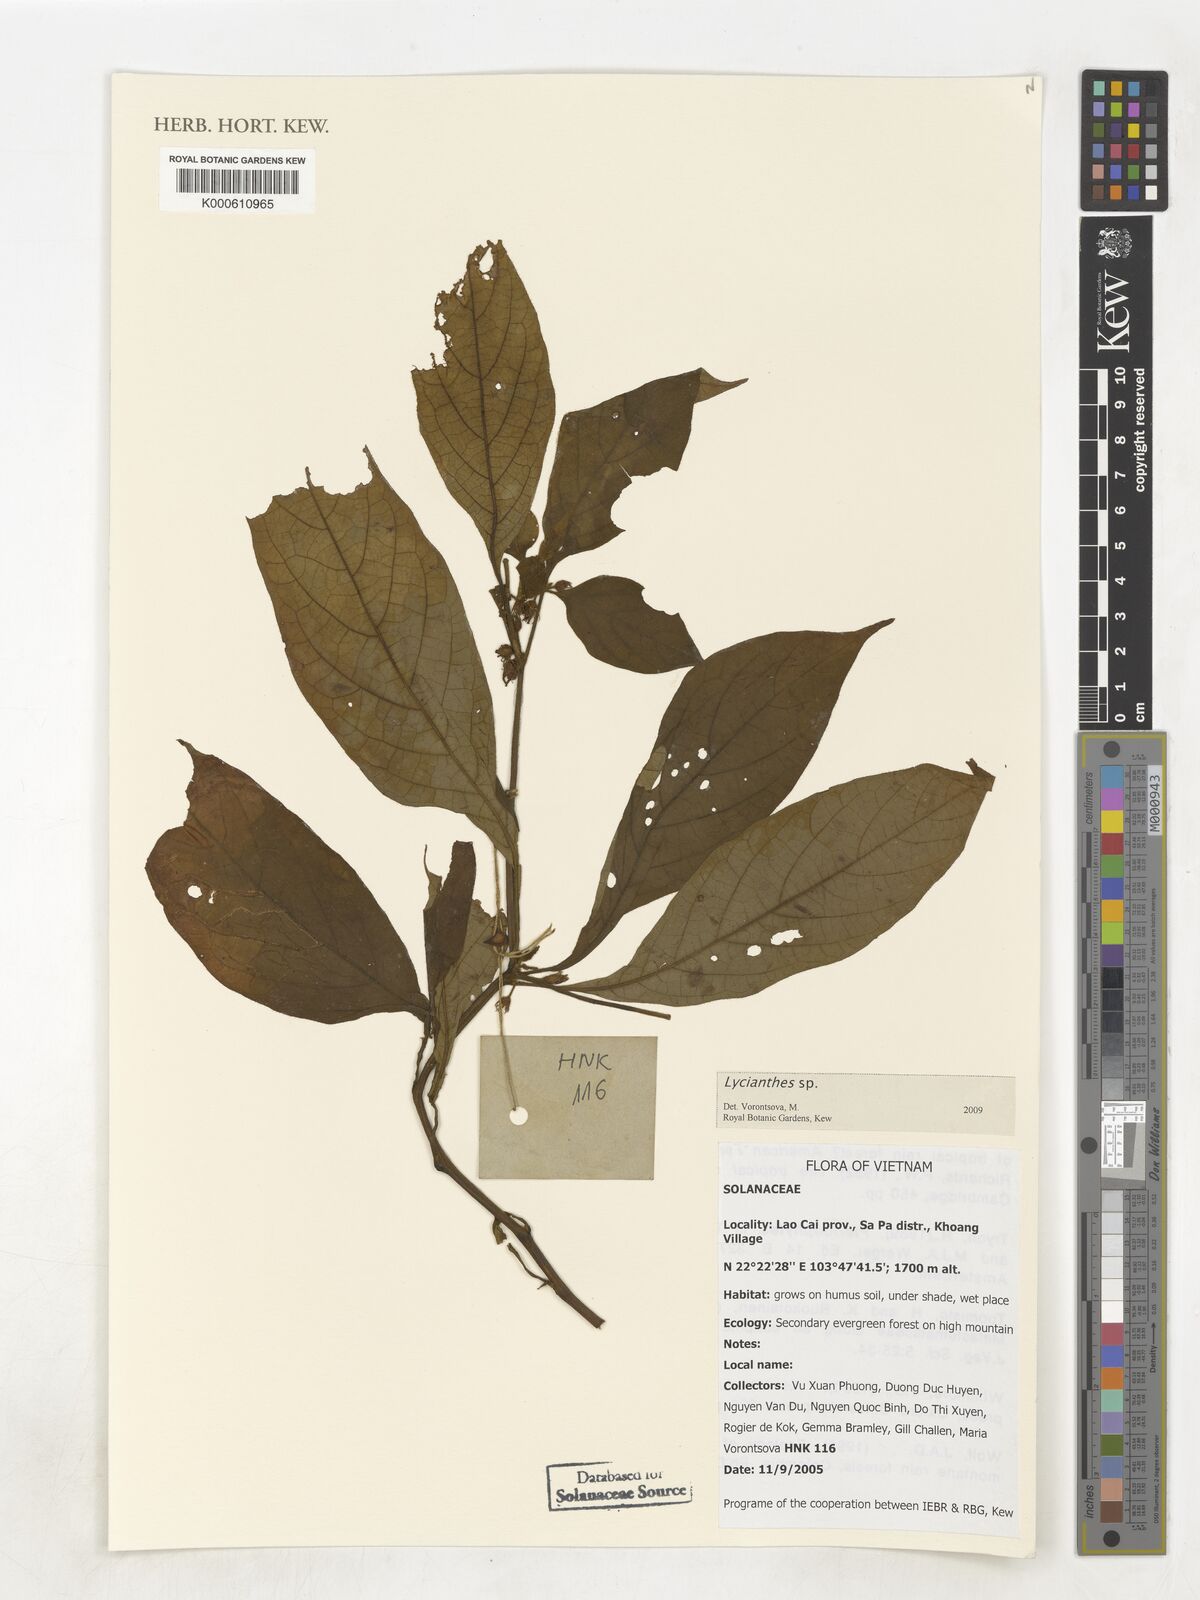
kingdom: Plantae
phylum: Tracheophyta
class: Magnoliopsida
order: Solanales
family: Solanaceae
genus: Lycianthes
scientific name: Lycianthes
